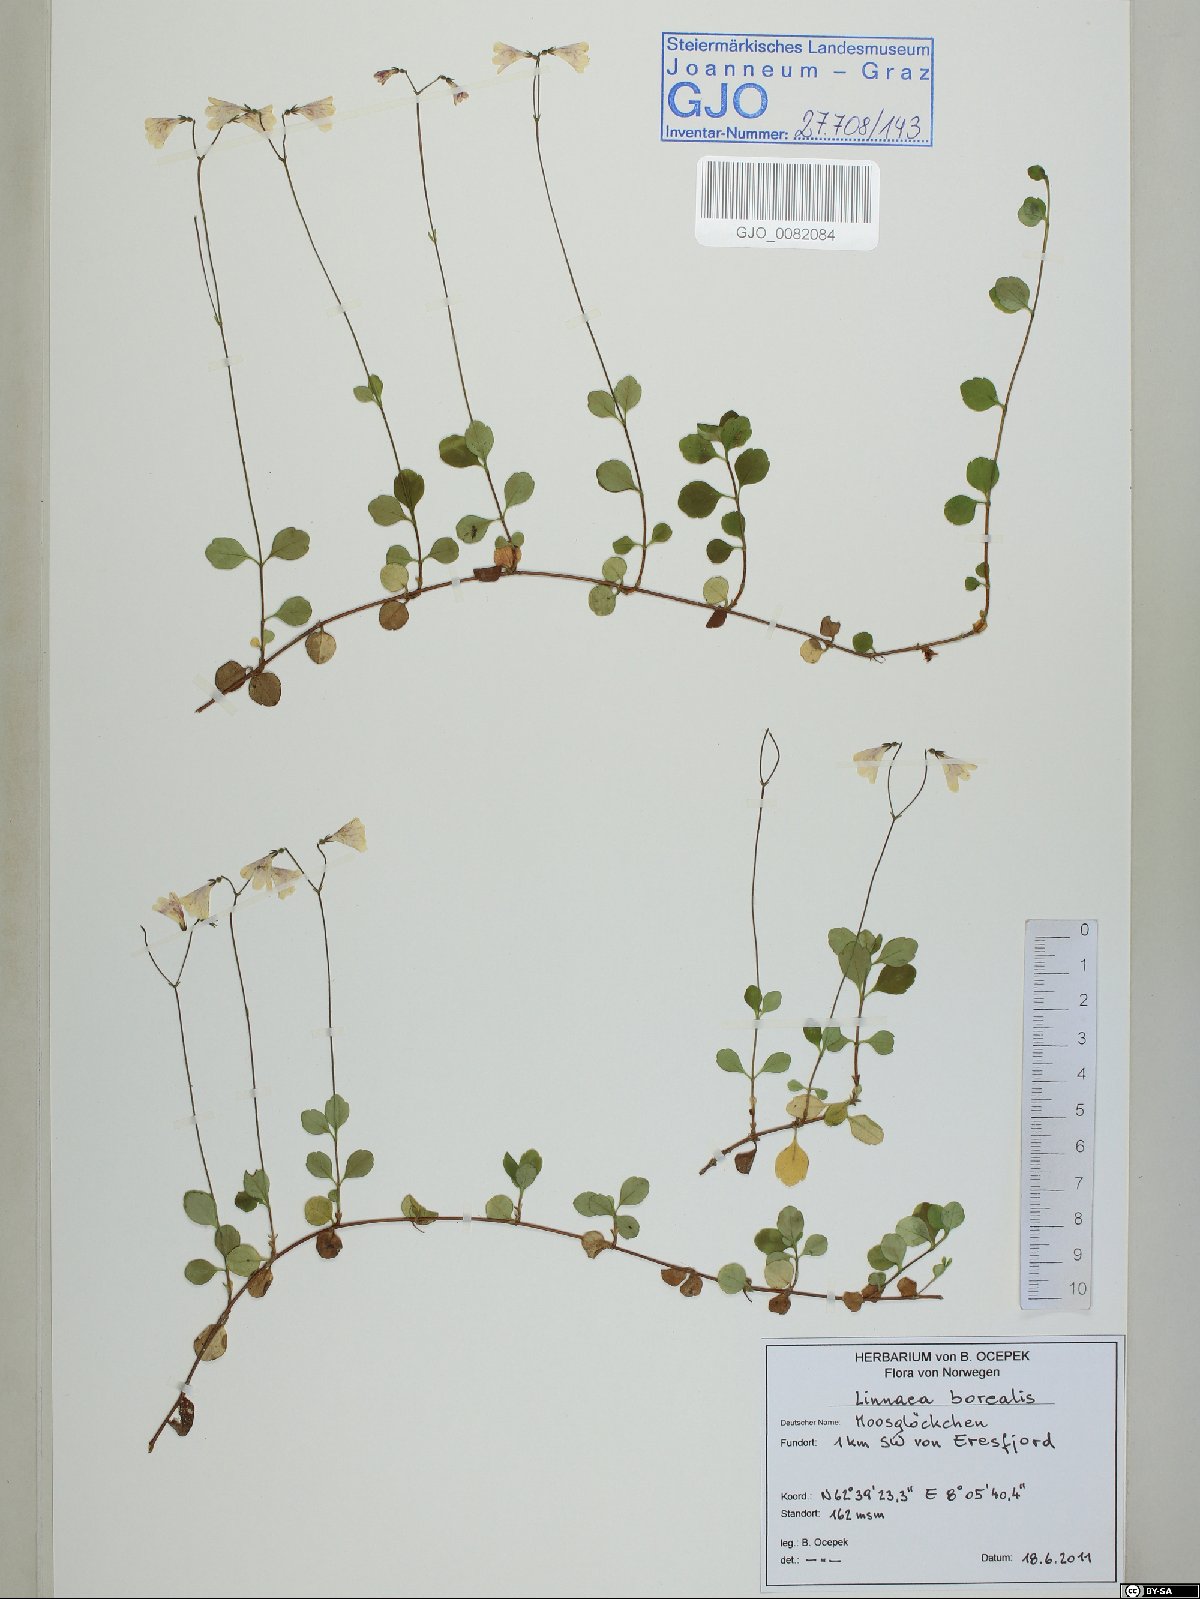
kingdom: Plantae
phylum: Tracheophyta
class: Magnoliopsida
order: Dipsacales
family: Caprifoliaceae
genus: Linnaea
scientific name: Linnaea borealis
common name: Twinflower
